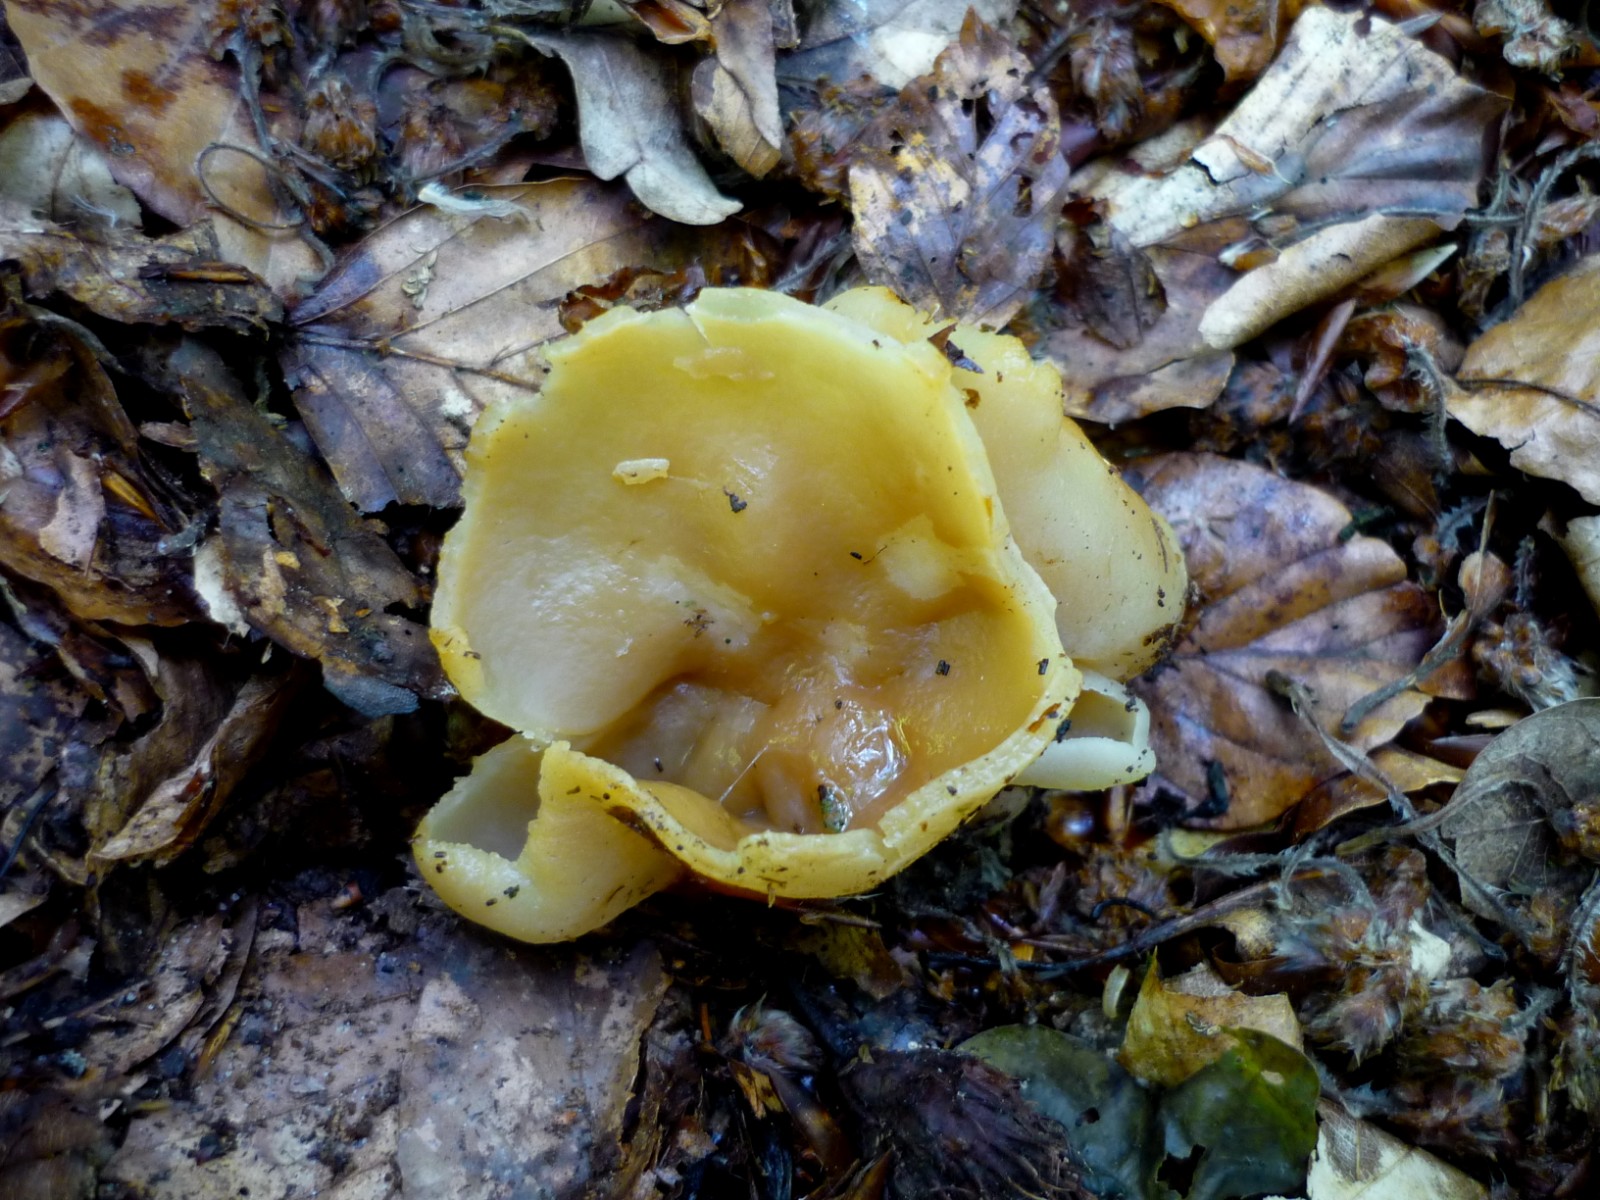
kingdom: Fungi
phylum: Ascomycota
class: Pezizomycetes
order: Pezizales
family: Pezizaceae
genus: Peziza
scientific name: Peziza
